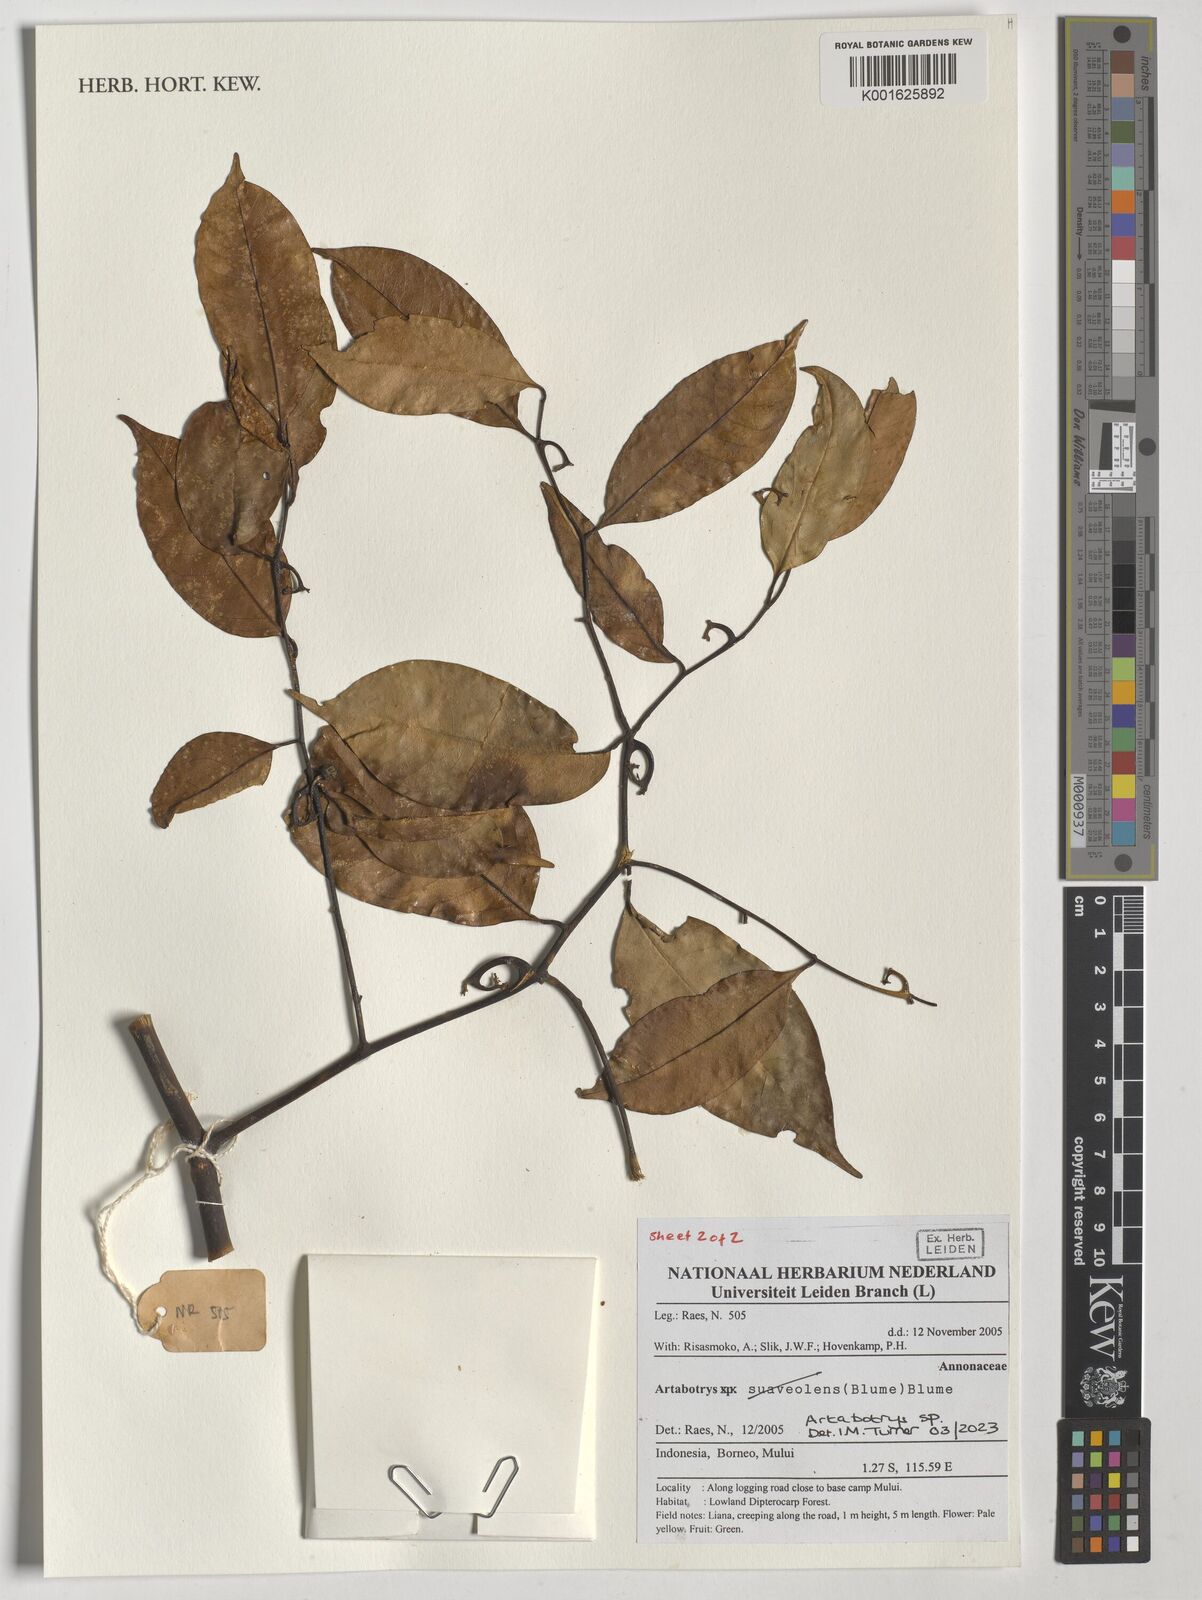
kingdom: Plantae
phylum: Tracheophyta
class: Magnoliopsida
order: Magnoliales
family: Annonaceae
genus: Artabotrys
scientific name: Artabotrys
